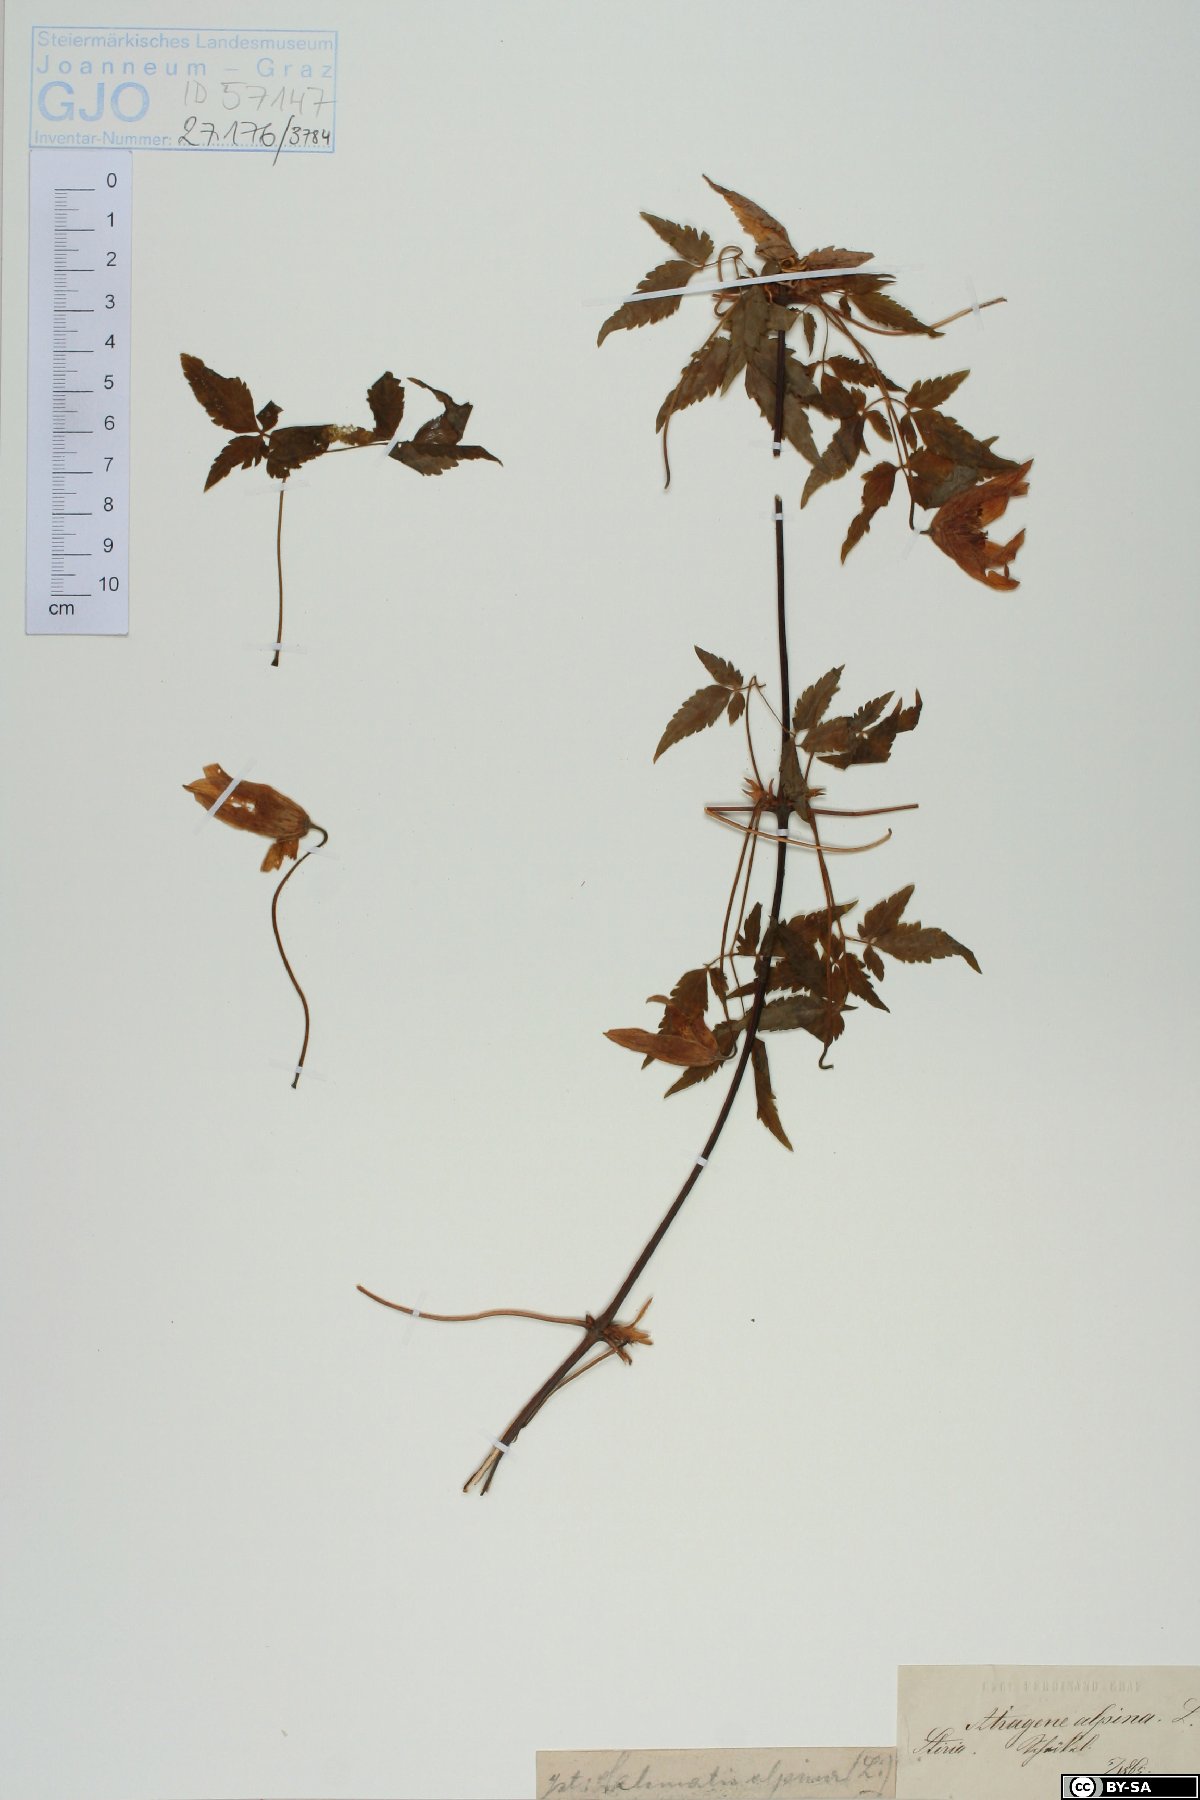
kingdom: Plantae
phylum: Tracheophyta
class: Magnoliopsida
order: Ranunculales
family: Ranunculaceae
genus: Clematis
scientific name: Clematis alpina
